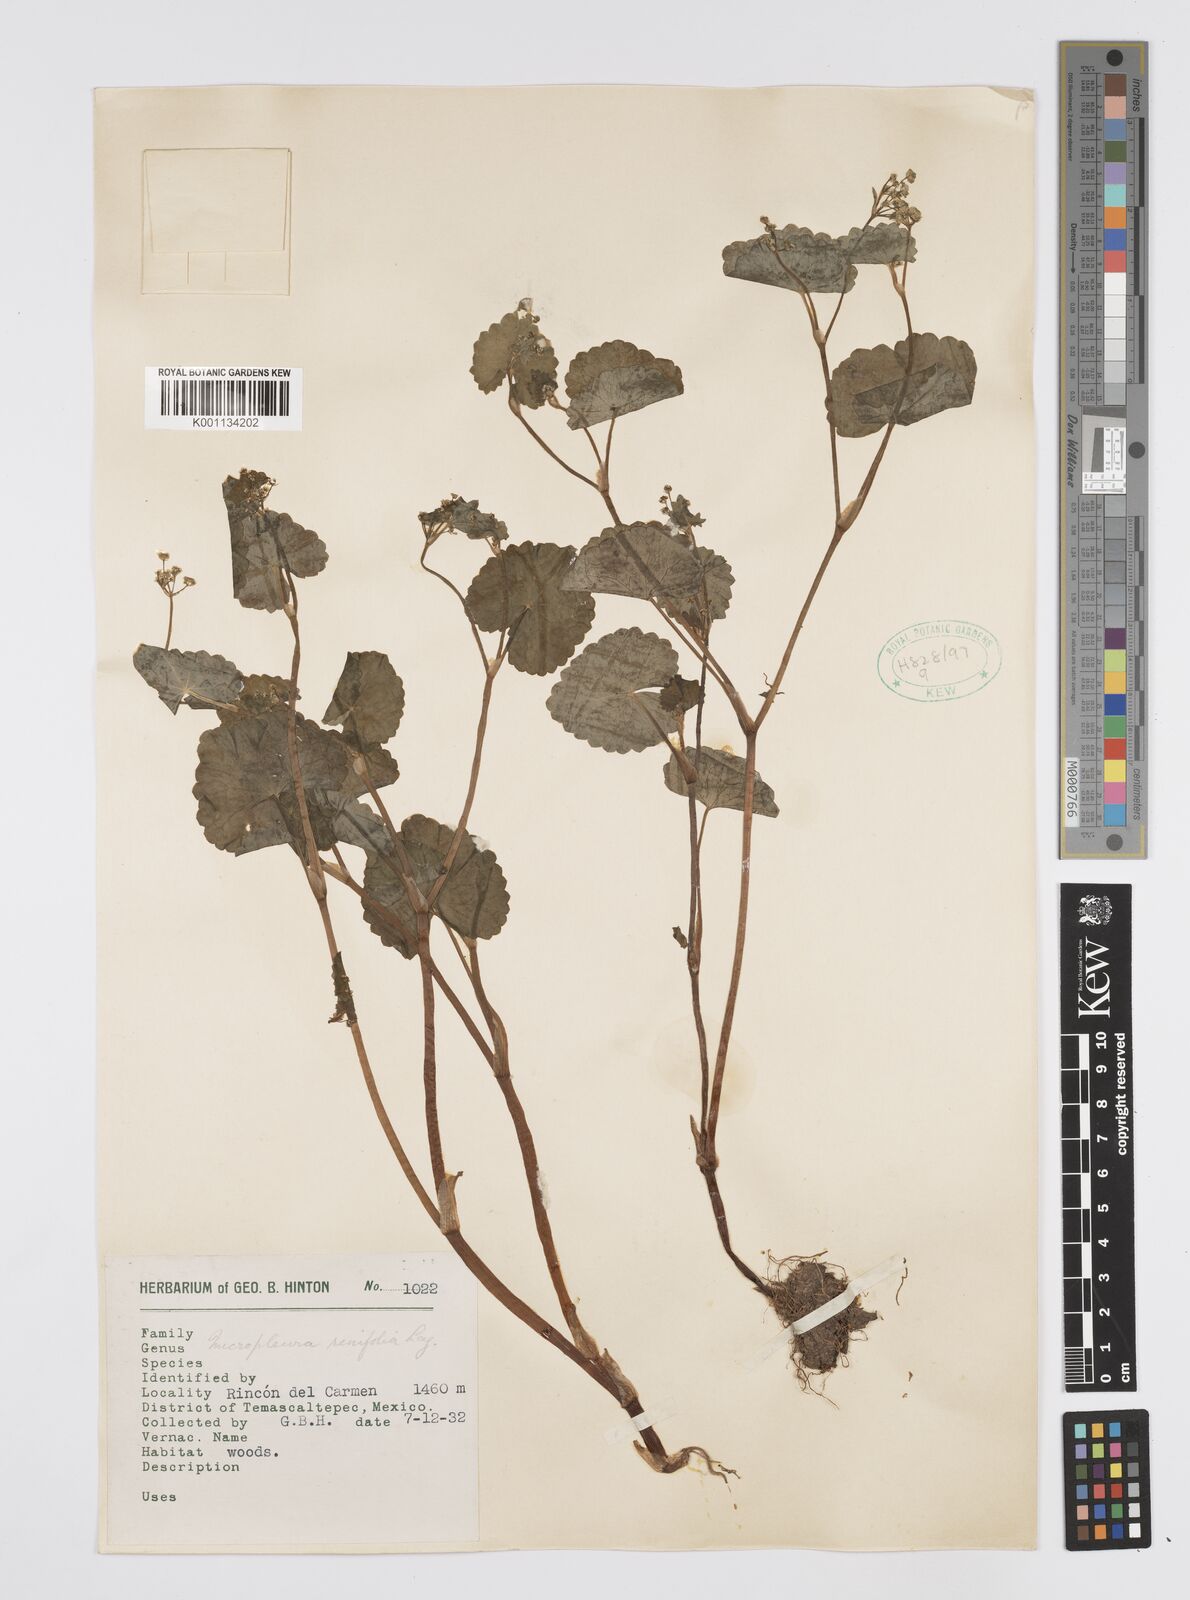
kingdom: Plantae
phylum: Tracheophyta
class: Magnoliopsida
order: Apiales
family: Apiaceae
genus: Micropleura
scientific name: Micropleura renifolia
